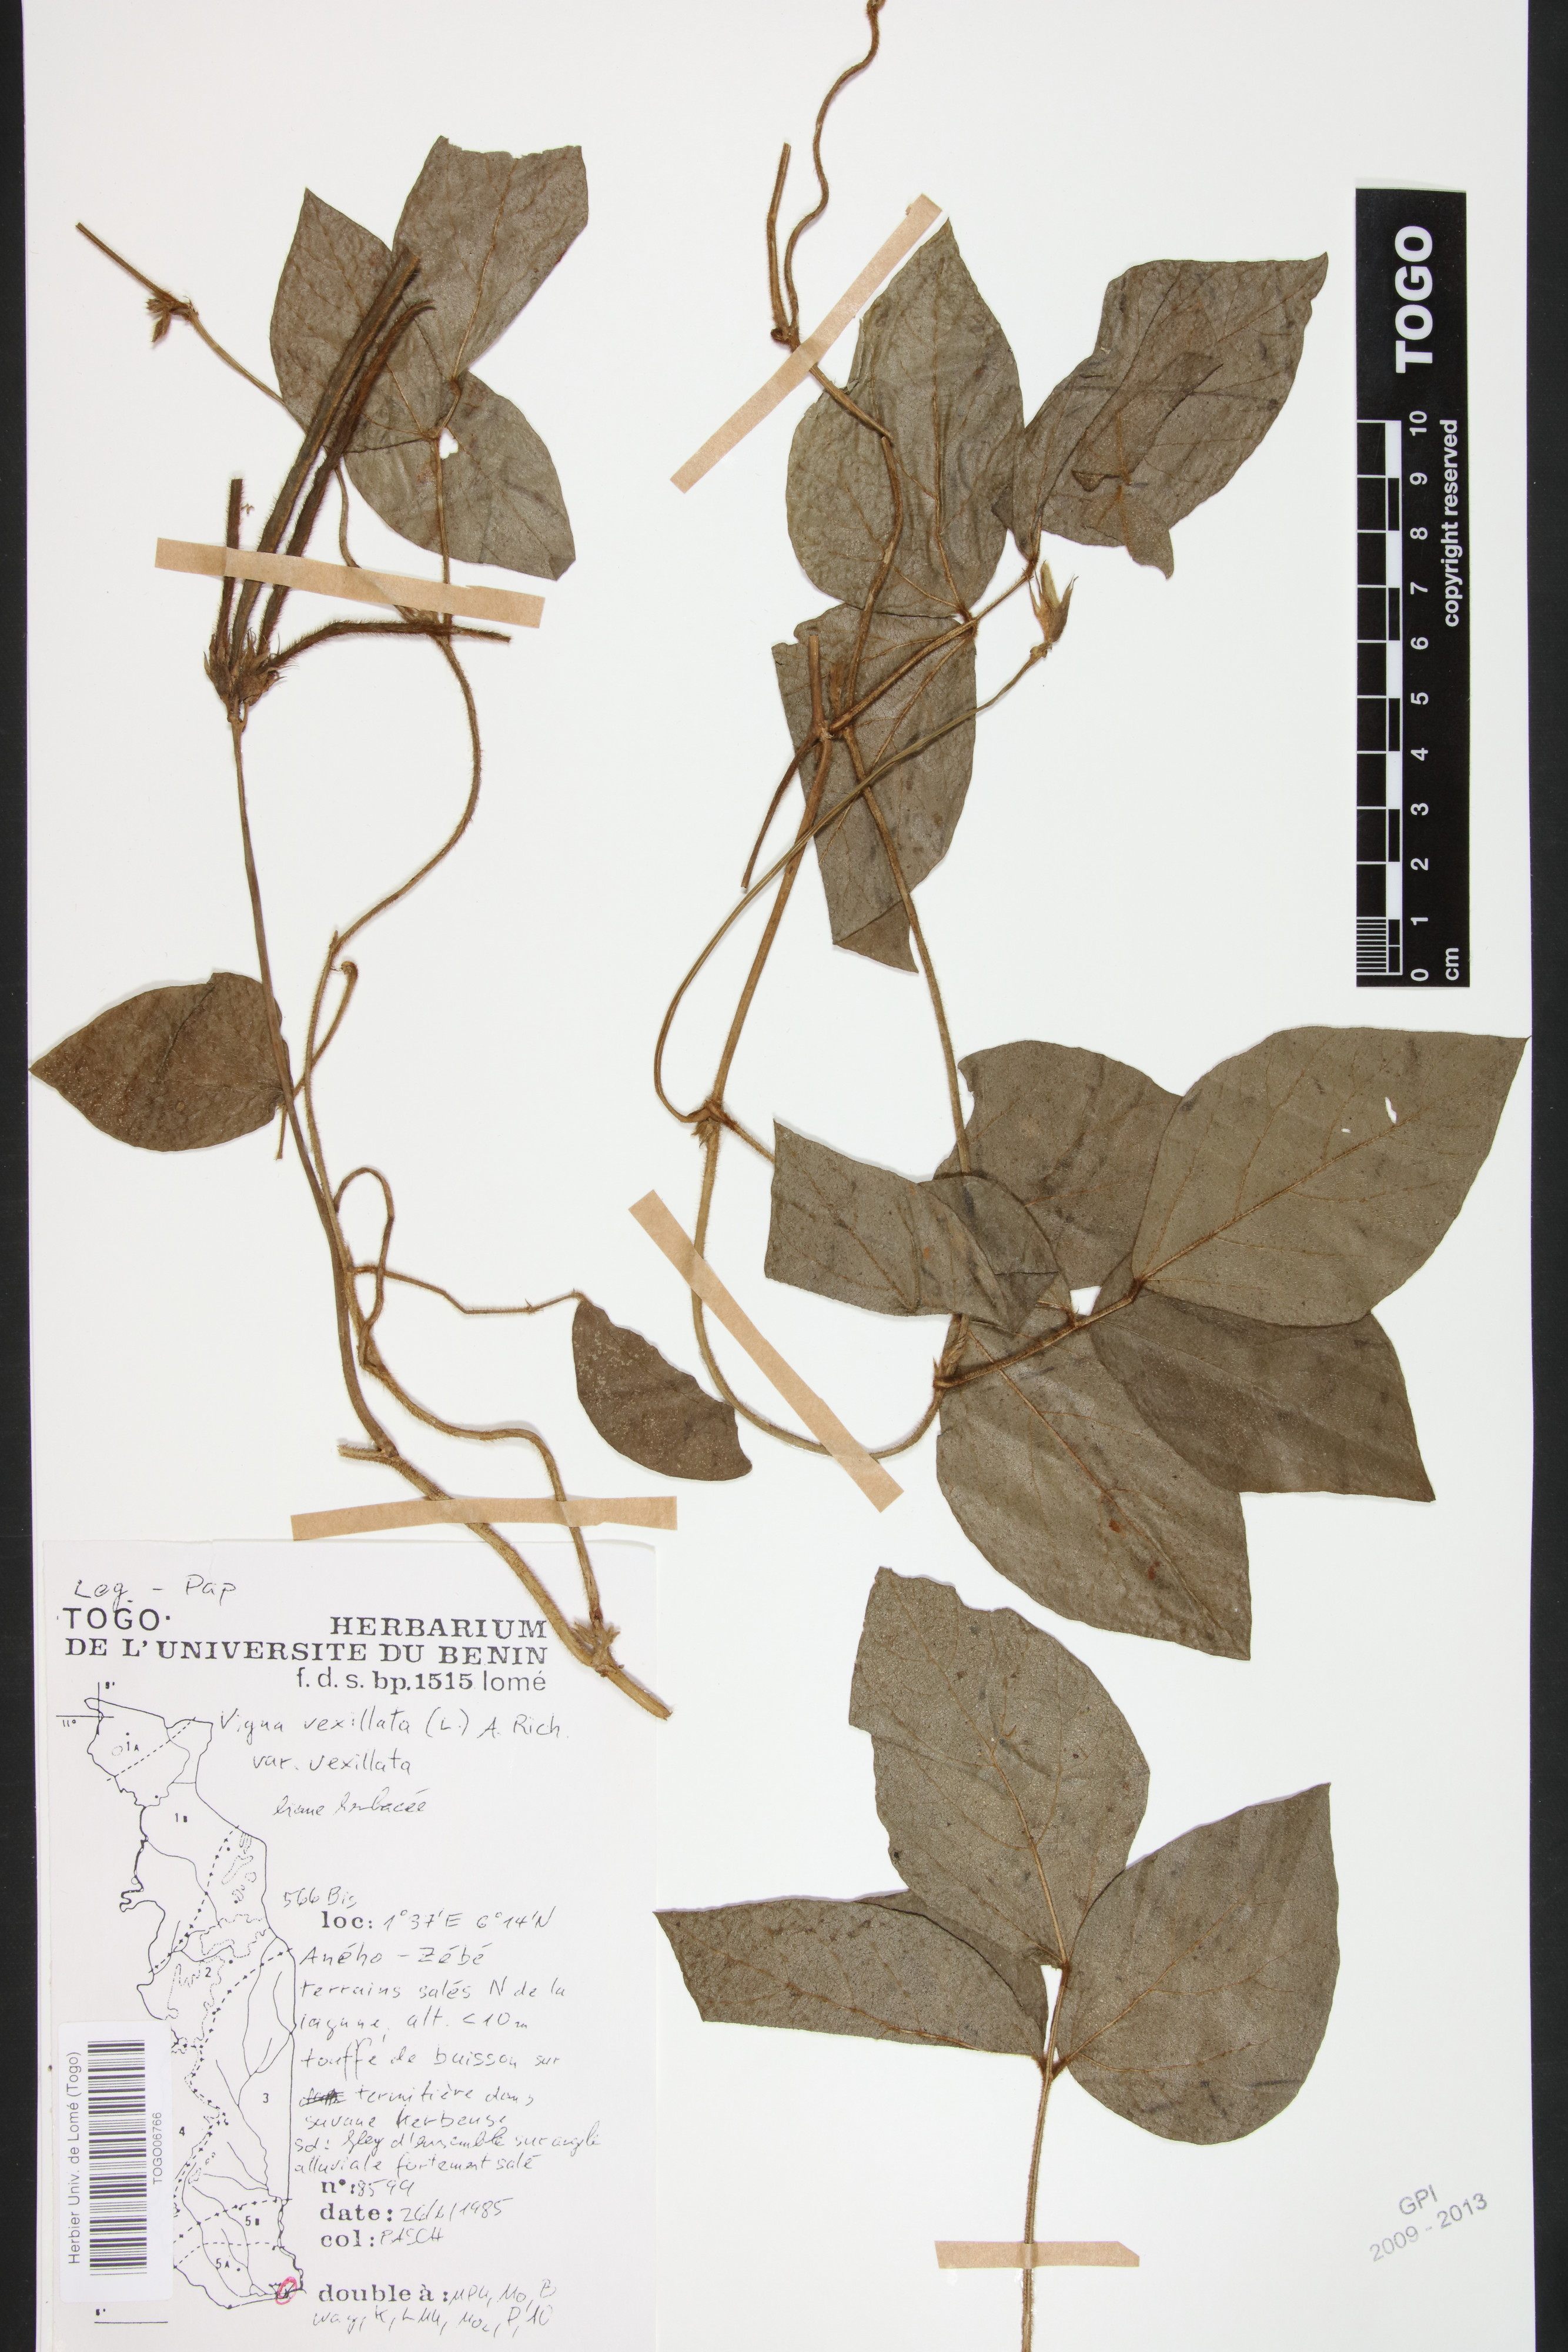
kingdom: Plantae
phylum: Tracheophyta
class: Magnoliopsida
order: Fabales
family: Fabaceae
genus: Vigna
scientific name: Vigna vexillata
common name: Zombi pea
